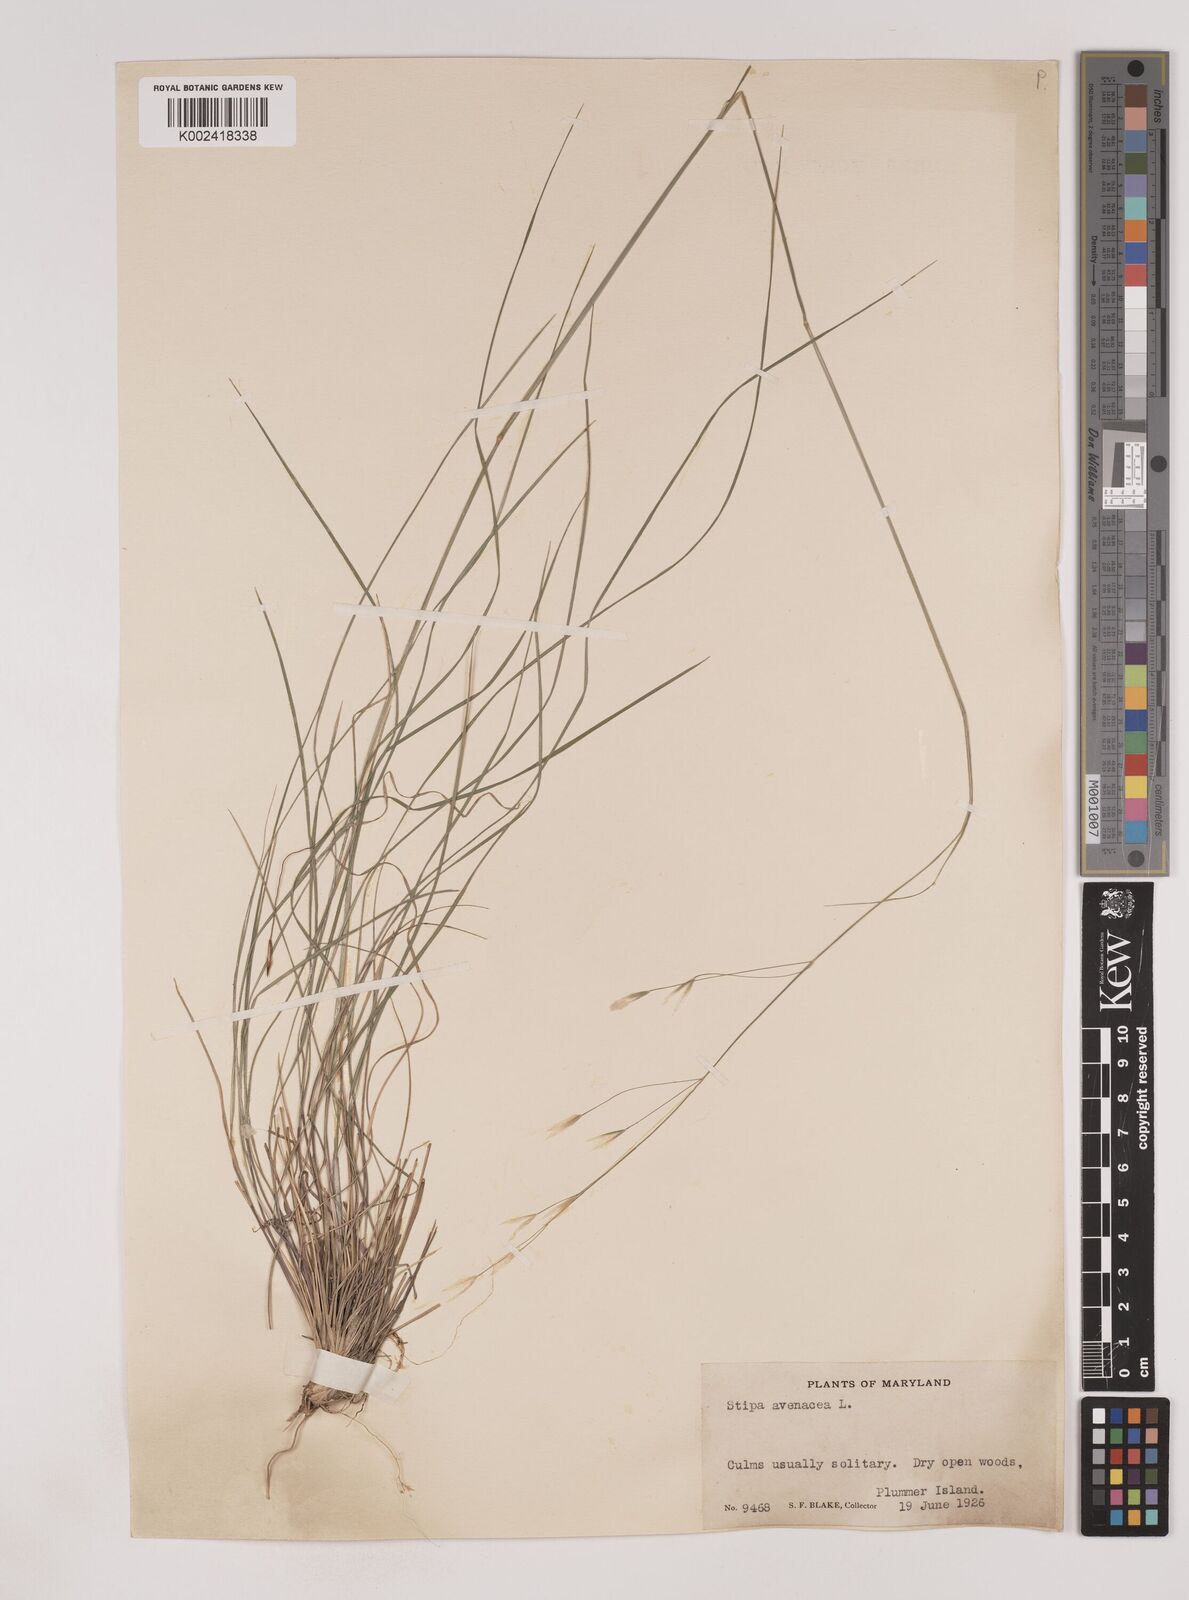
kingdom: Plantae
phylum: Tracheophyta
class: Liliopsida
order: Poales
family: Poaceae
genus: Piptochaetium
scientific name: Piptochaetium avenaceum
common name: Black bunchgrass
